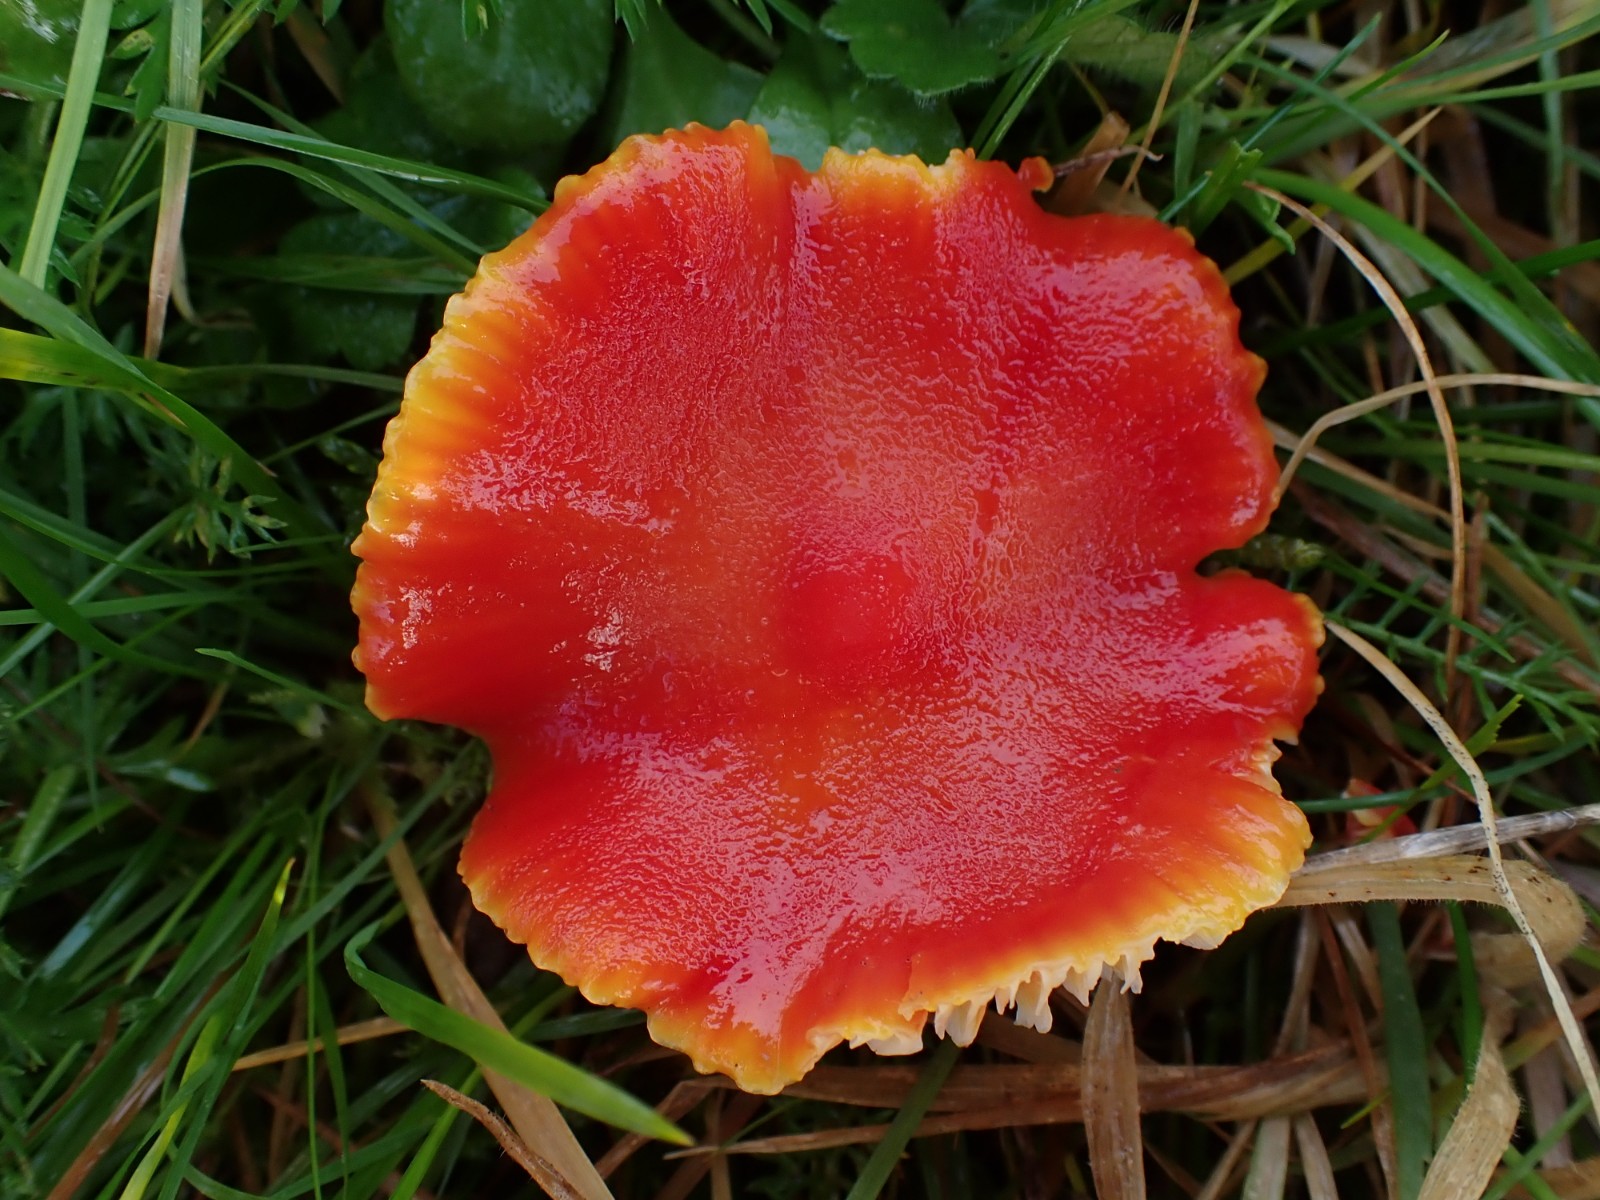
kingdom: Fungi
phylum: Basidiomycota
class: Agaricomycetes
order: Agaricales
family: Hygrophoraceae
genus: Hygrocybe
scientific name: Hygrocybe coccinea
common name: cinnober-vokshat
